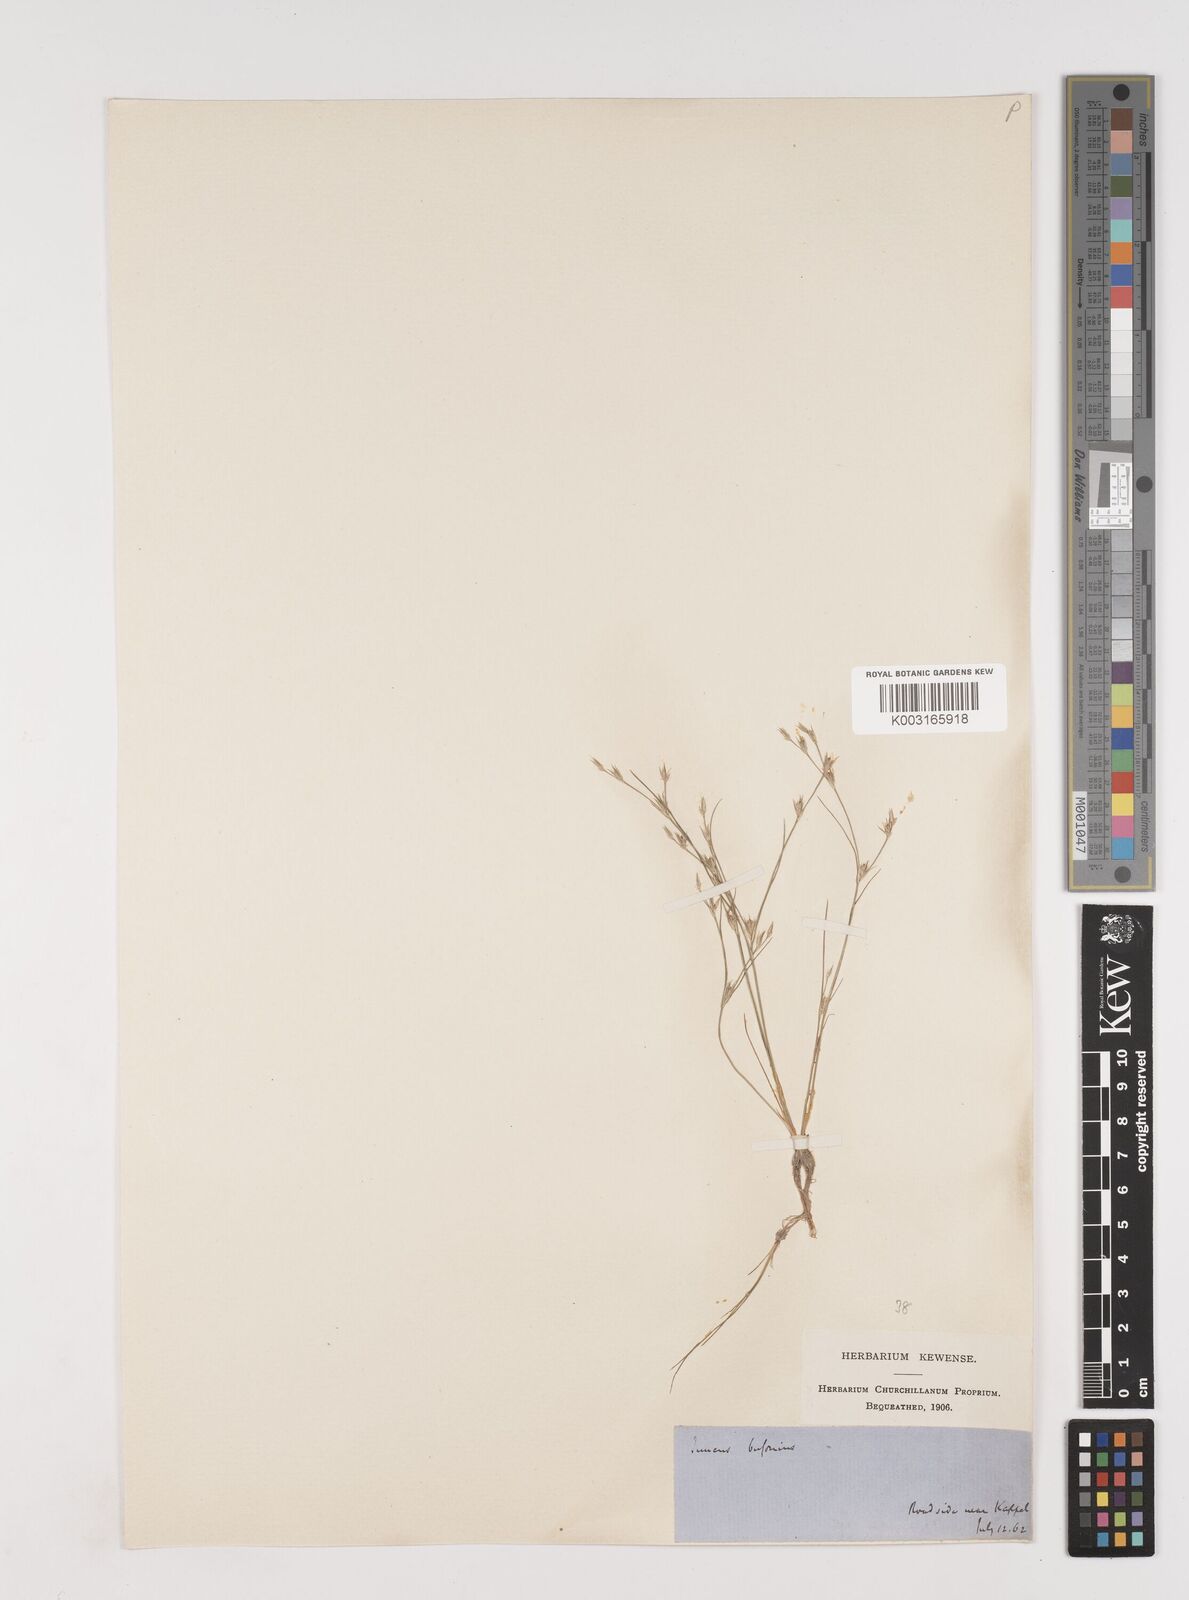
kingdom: Plantae
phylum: Tracheophyta
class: Liliopsida
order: Poales
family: Juncaceae
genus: Juncus
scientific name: Juncus bufonius
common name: Toad rush
